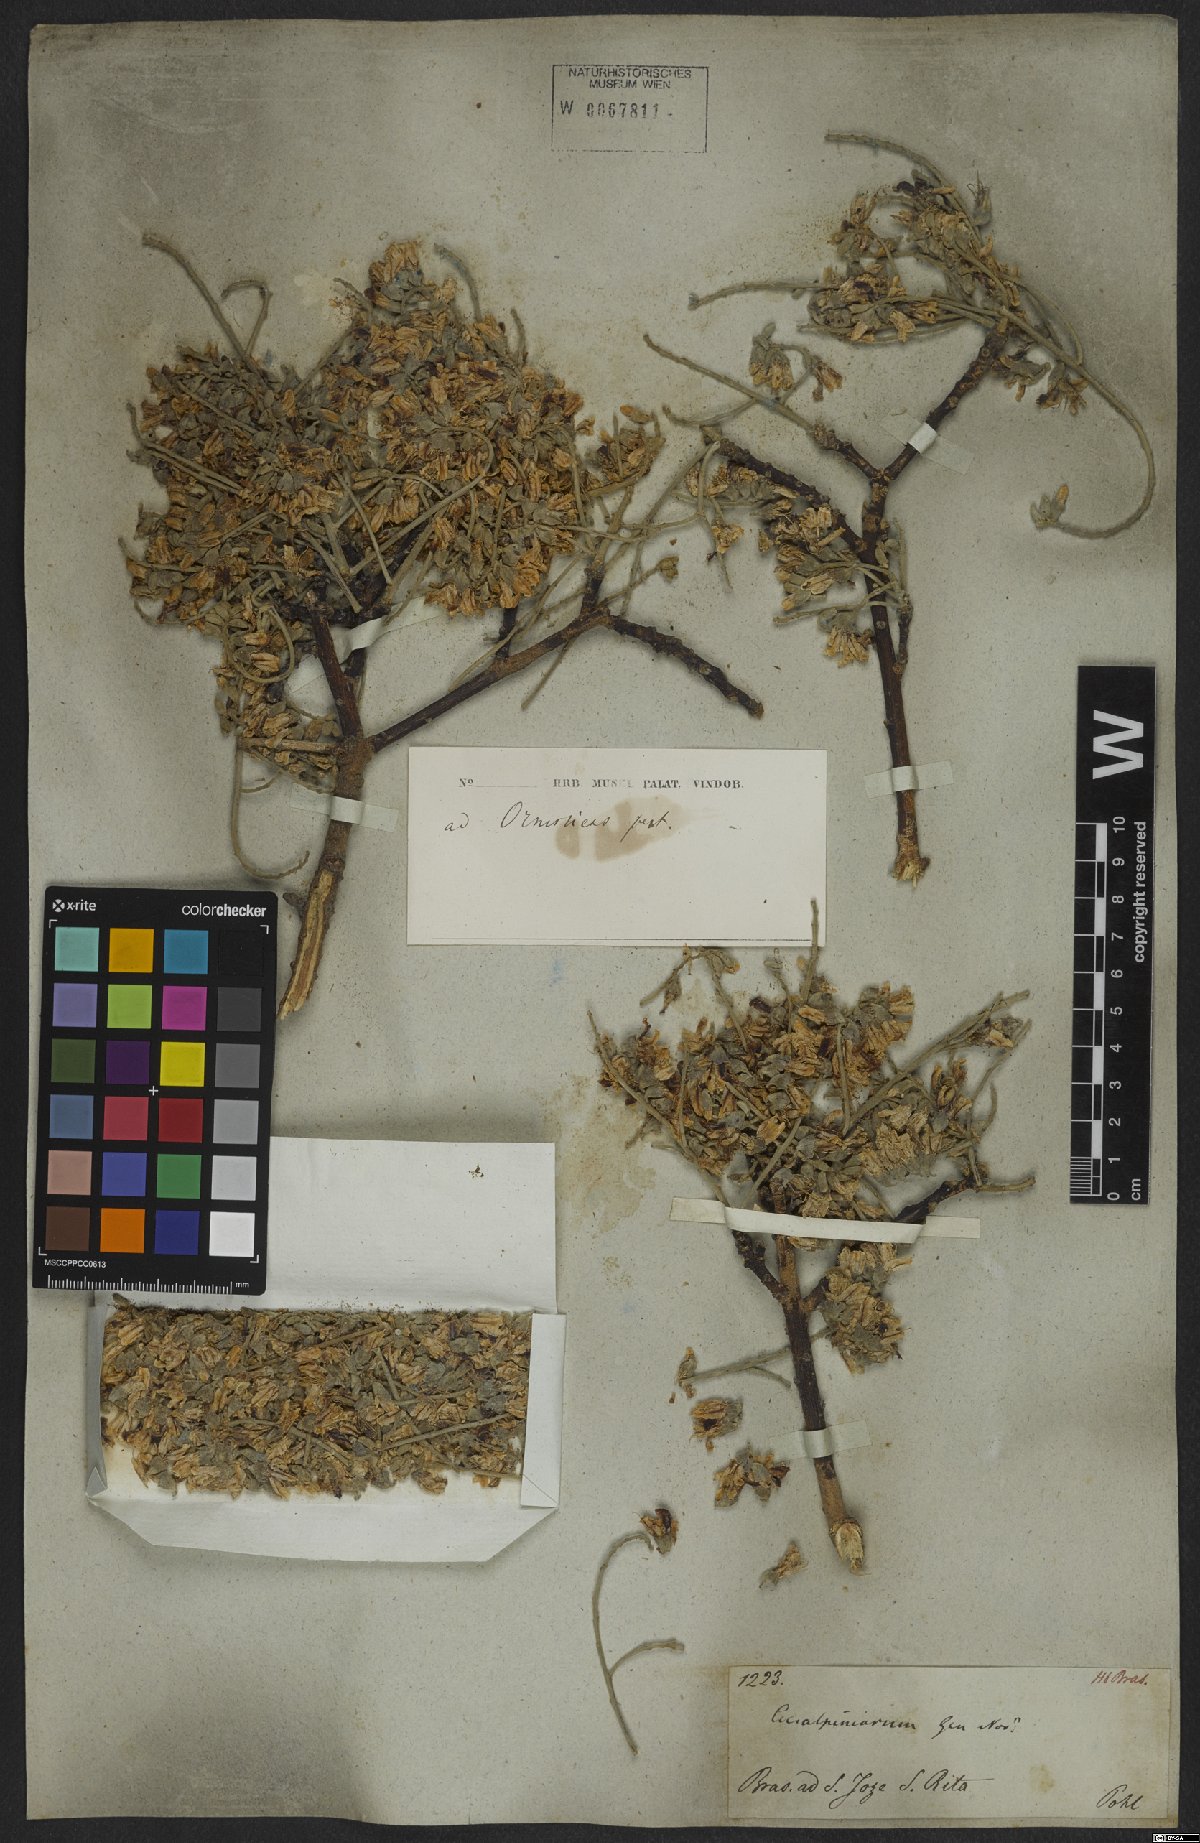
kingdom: Plantae
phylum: Tracheophyta
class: Magnoliopsida
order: Fabales
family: Fabaceae
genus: Ormosia
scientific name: Ormosia
